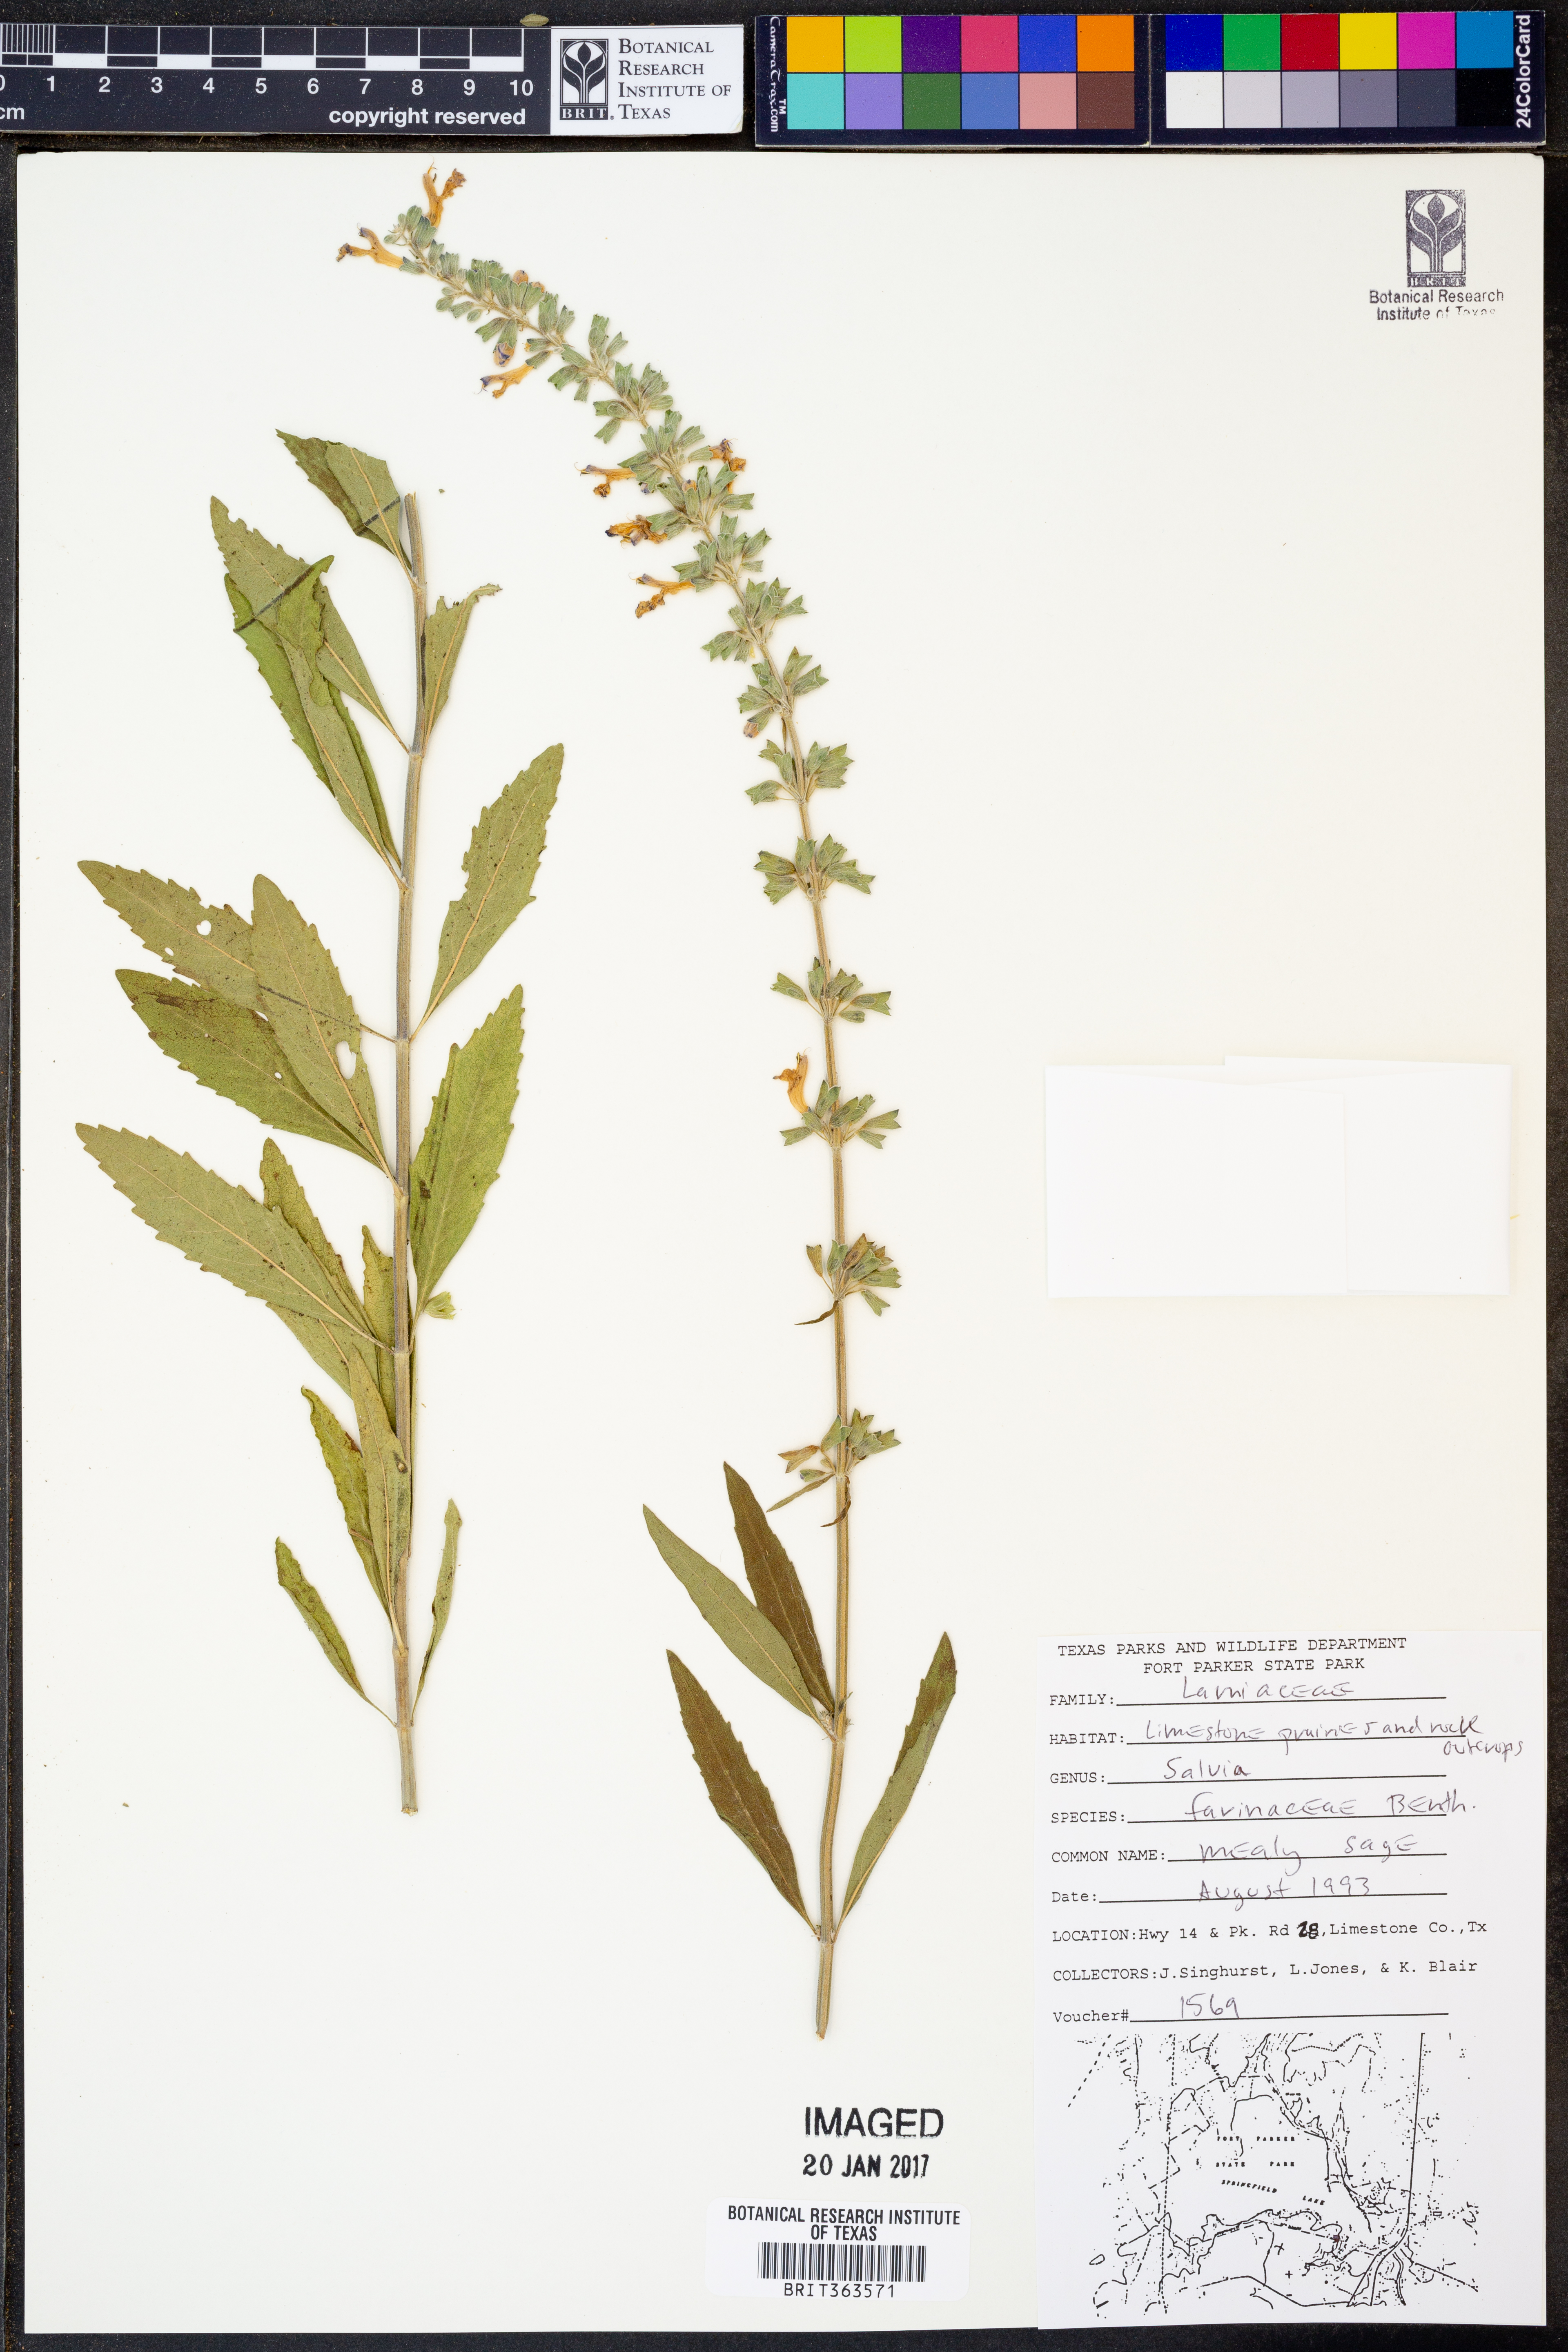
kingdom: Plantae
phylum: Tracheophyta
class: Magnoliopsida
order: Lamiales
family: Lamiaceae
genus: Salvia
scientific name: Salvia farinacea
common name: Mealy sage
